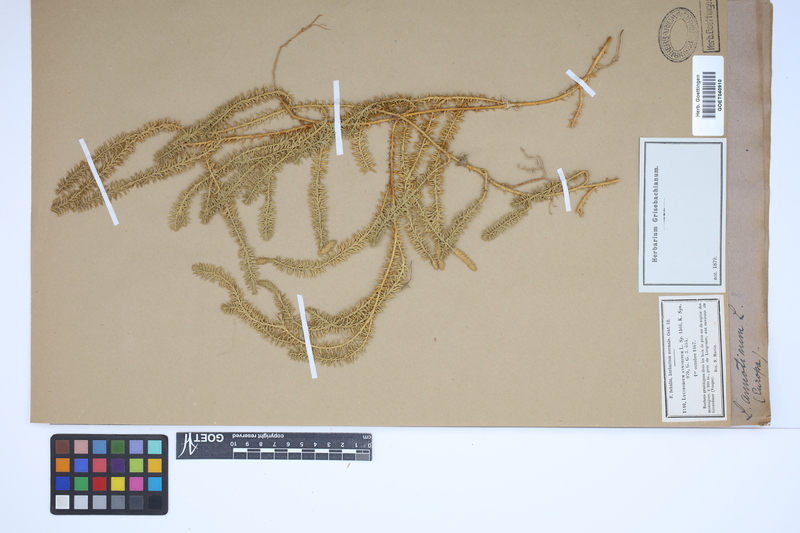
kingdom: Plantae
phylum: Tracheophyta
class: Lycopodiopsida
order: Lycopodiales
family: Lycopodiaceae
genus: Spinulum
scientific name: Spinulum annotinum
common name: Interrupted club-moss
